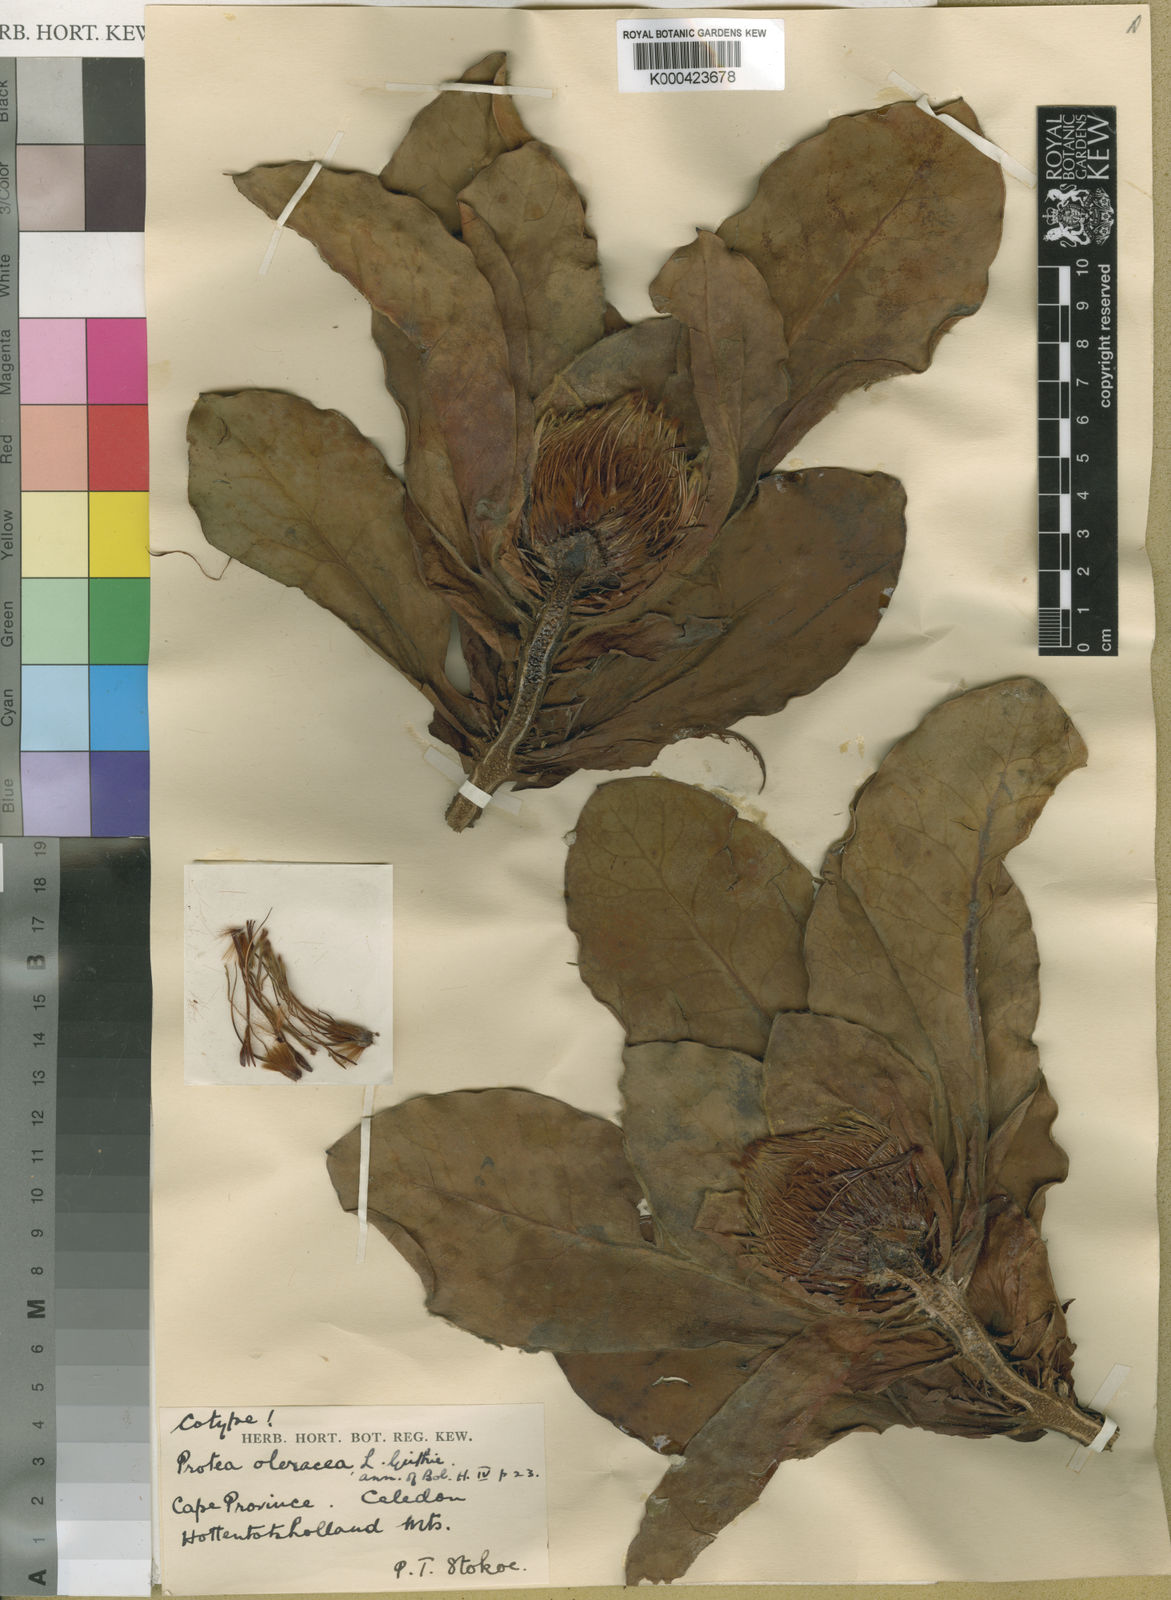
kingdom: Plantae
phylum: Tracheophyta
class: Magnoliopsida
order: Proteales
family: Proteaceae
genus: Protea
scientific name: Protea caespitosa
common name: Bishop sugarbush
